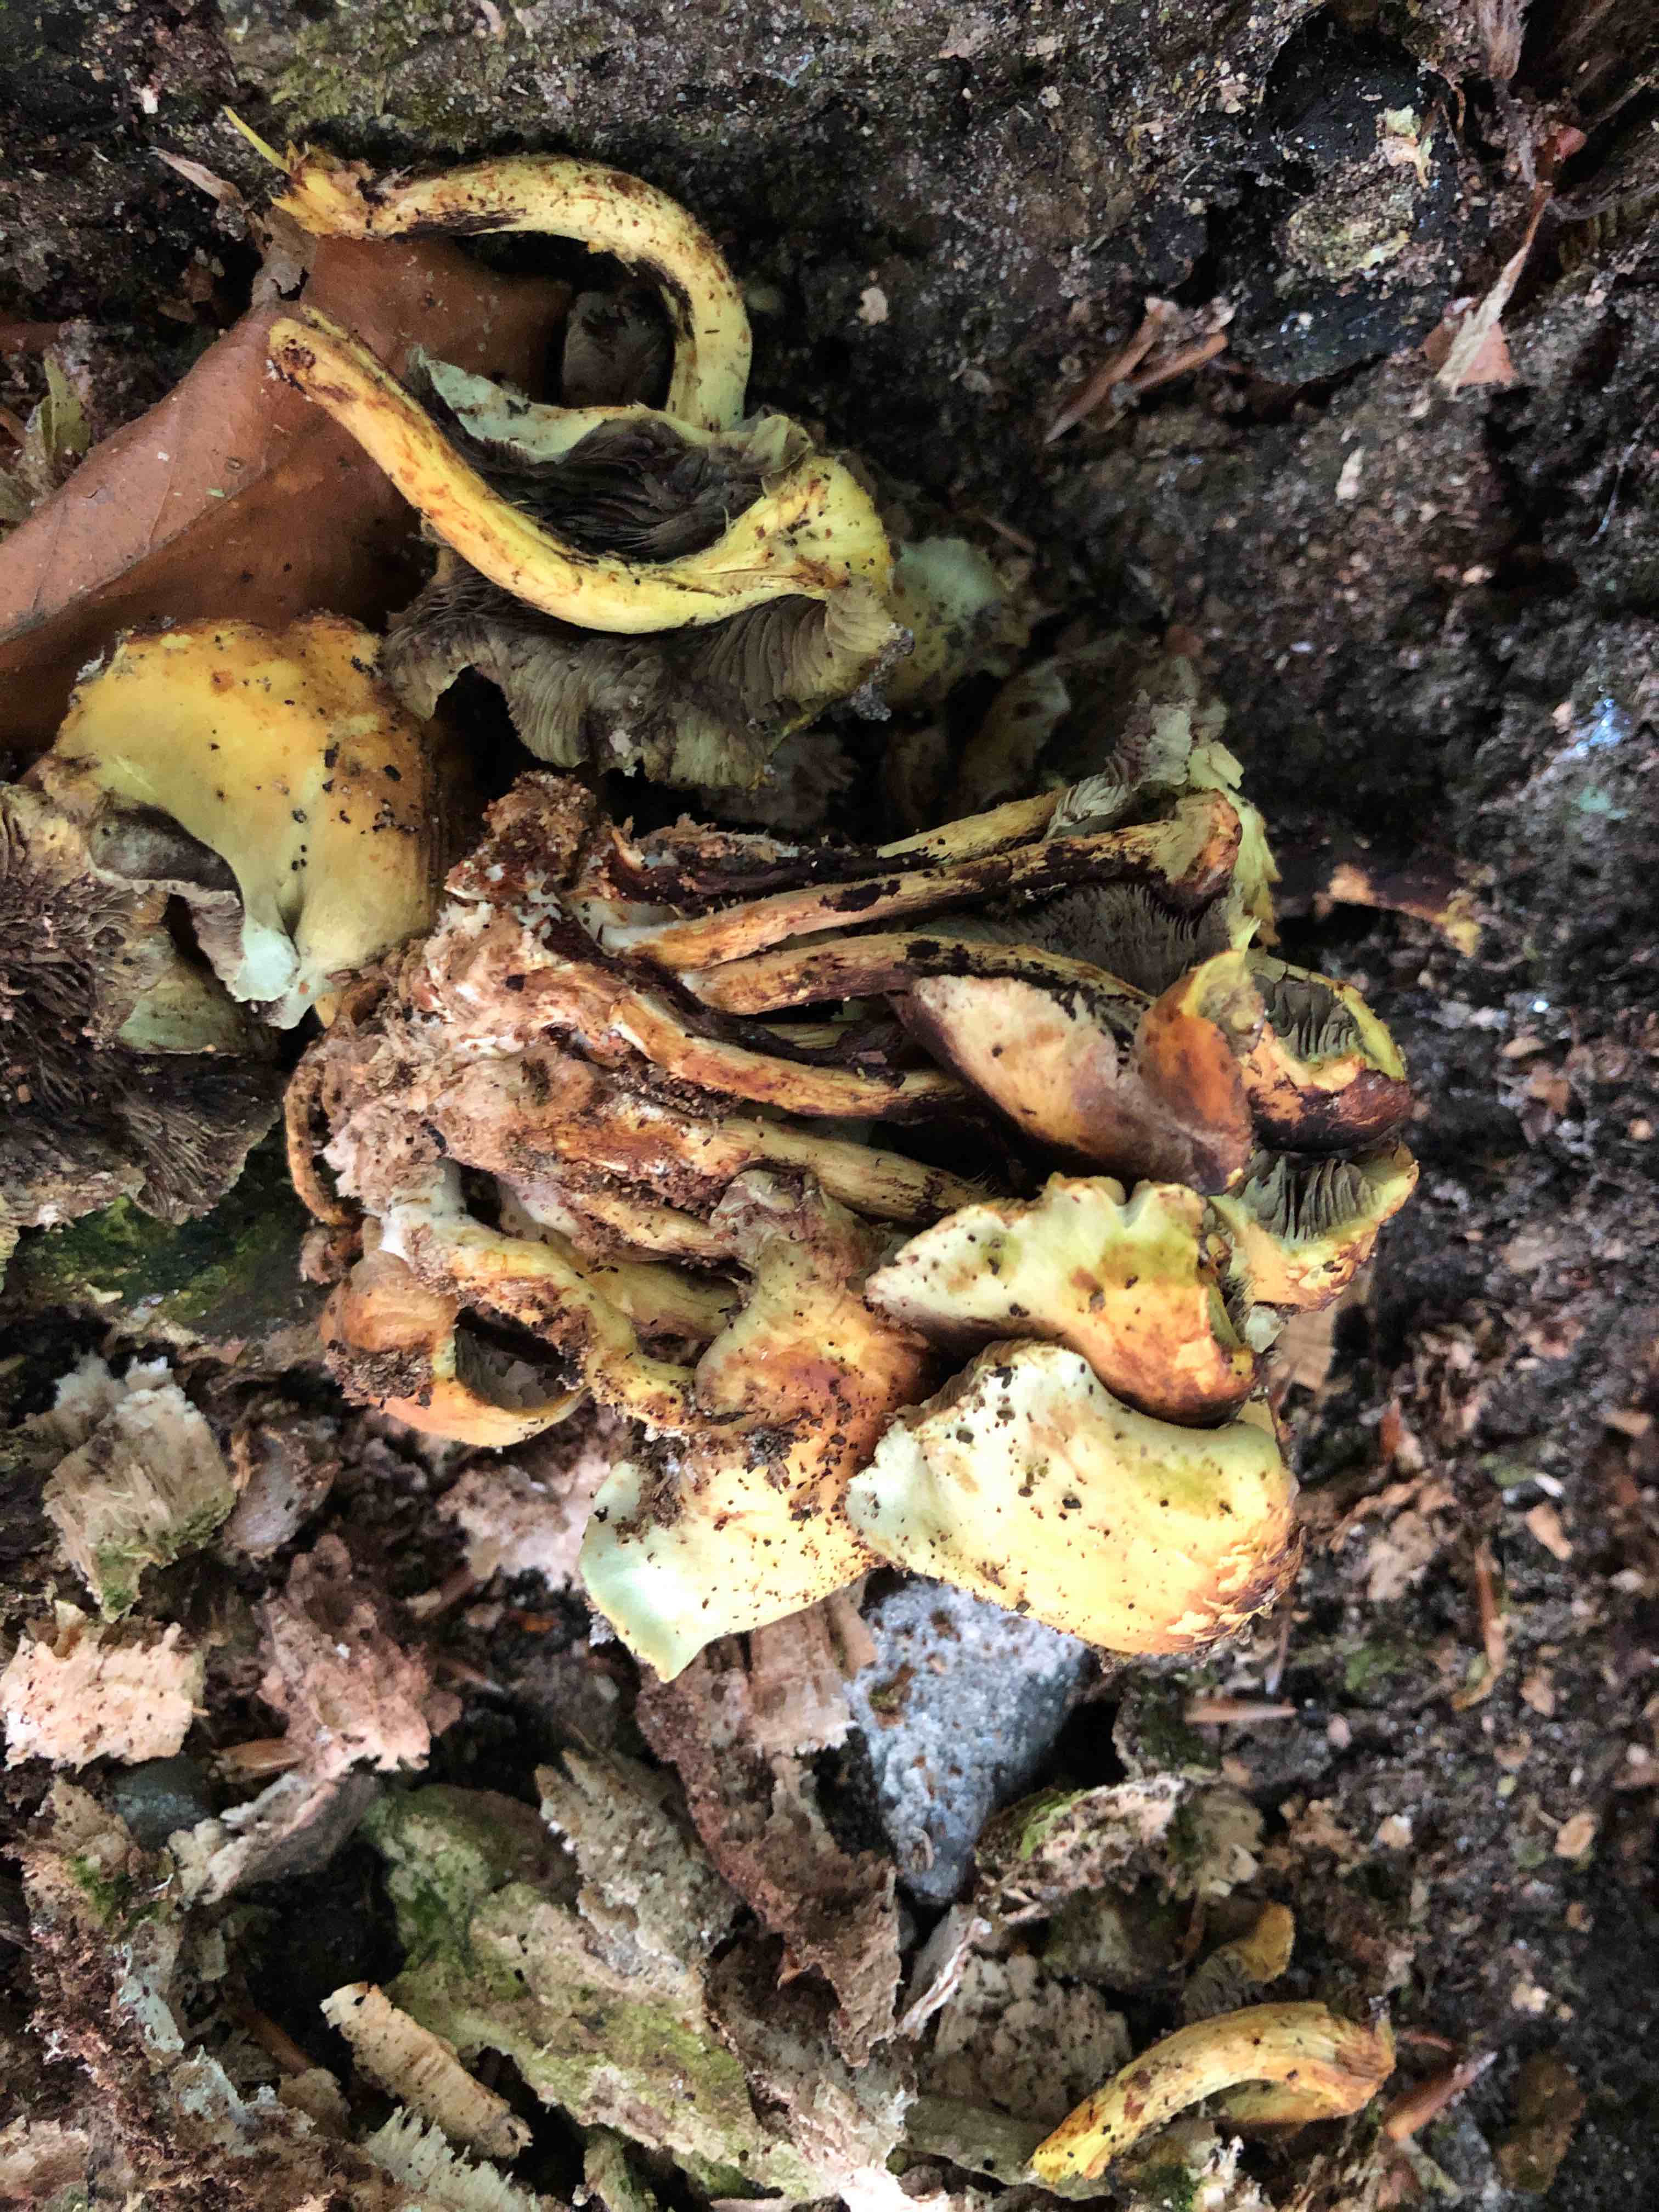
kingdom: Fungi
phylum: Basidiomycota
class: Agaricomycetes
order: Agaricales
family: Strophariaceae
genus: Hypholoma
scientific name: Hypholoma fasciculare
